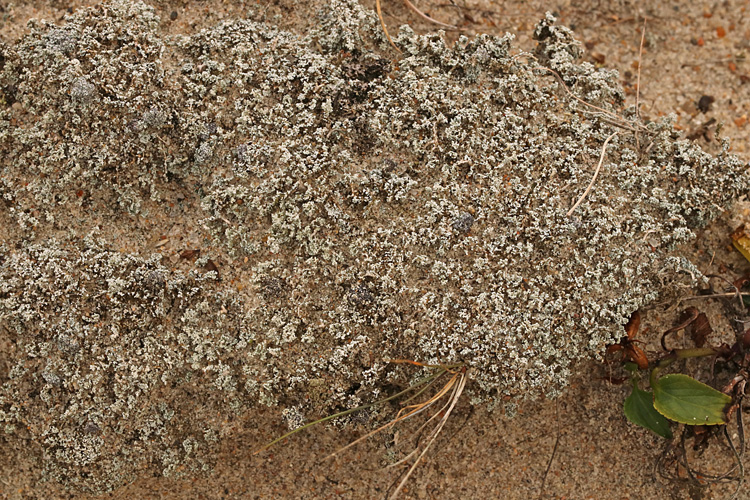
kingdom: Fungi
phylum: Ascomycota
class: Lecanoromycetes
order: Lecanorales
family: Stereocaulaceae
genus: Stereocaulon
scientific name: Stereocaulon condensatum
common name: lav korallav
